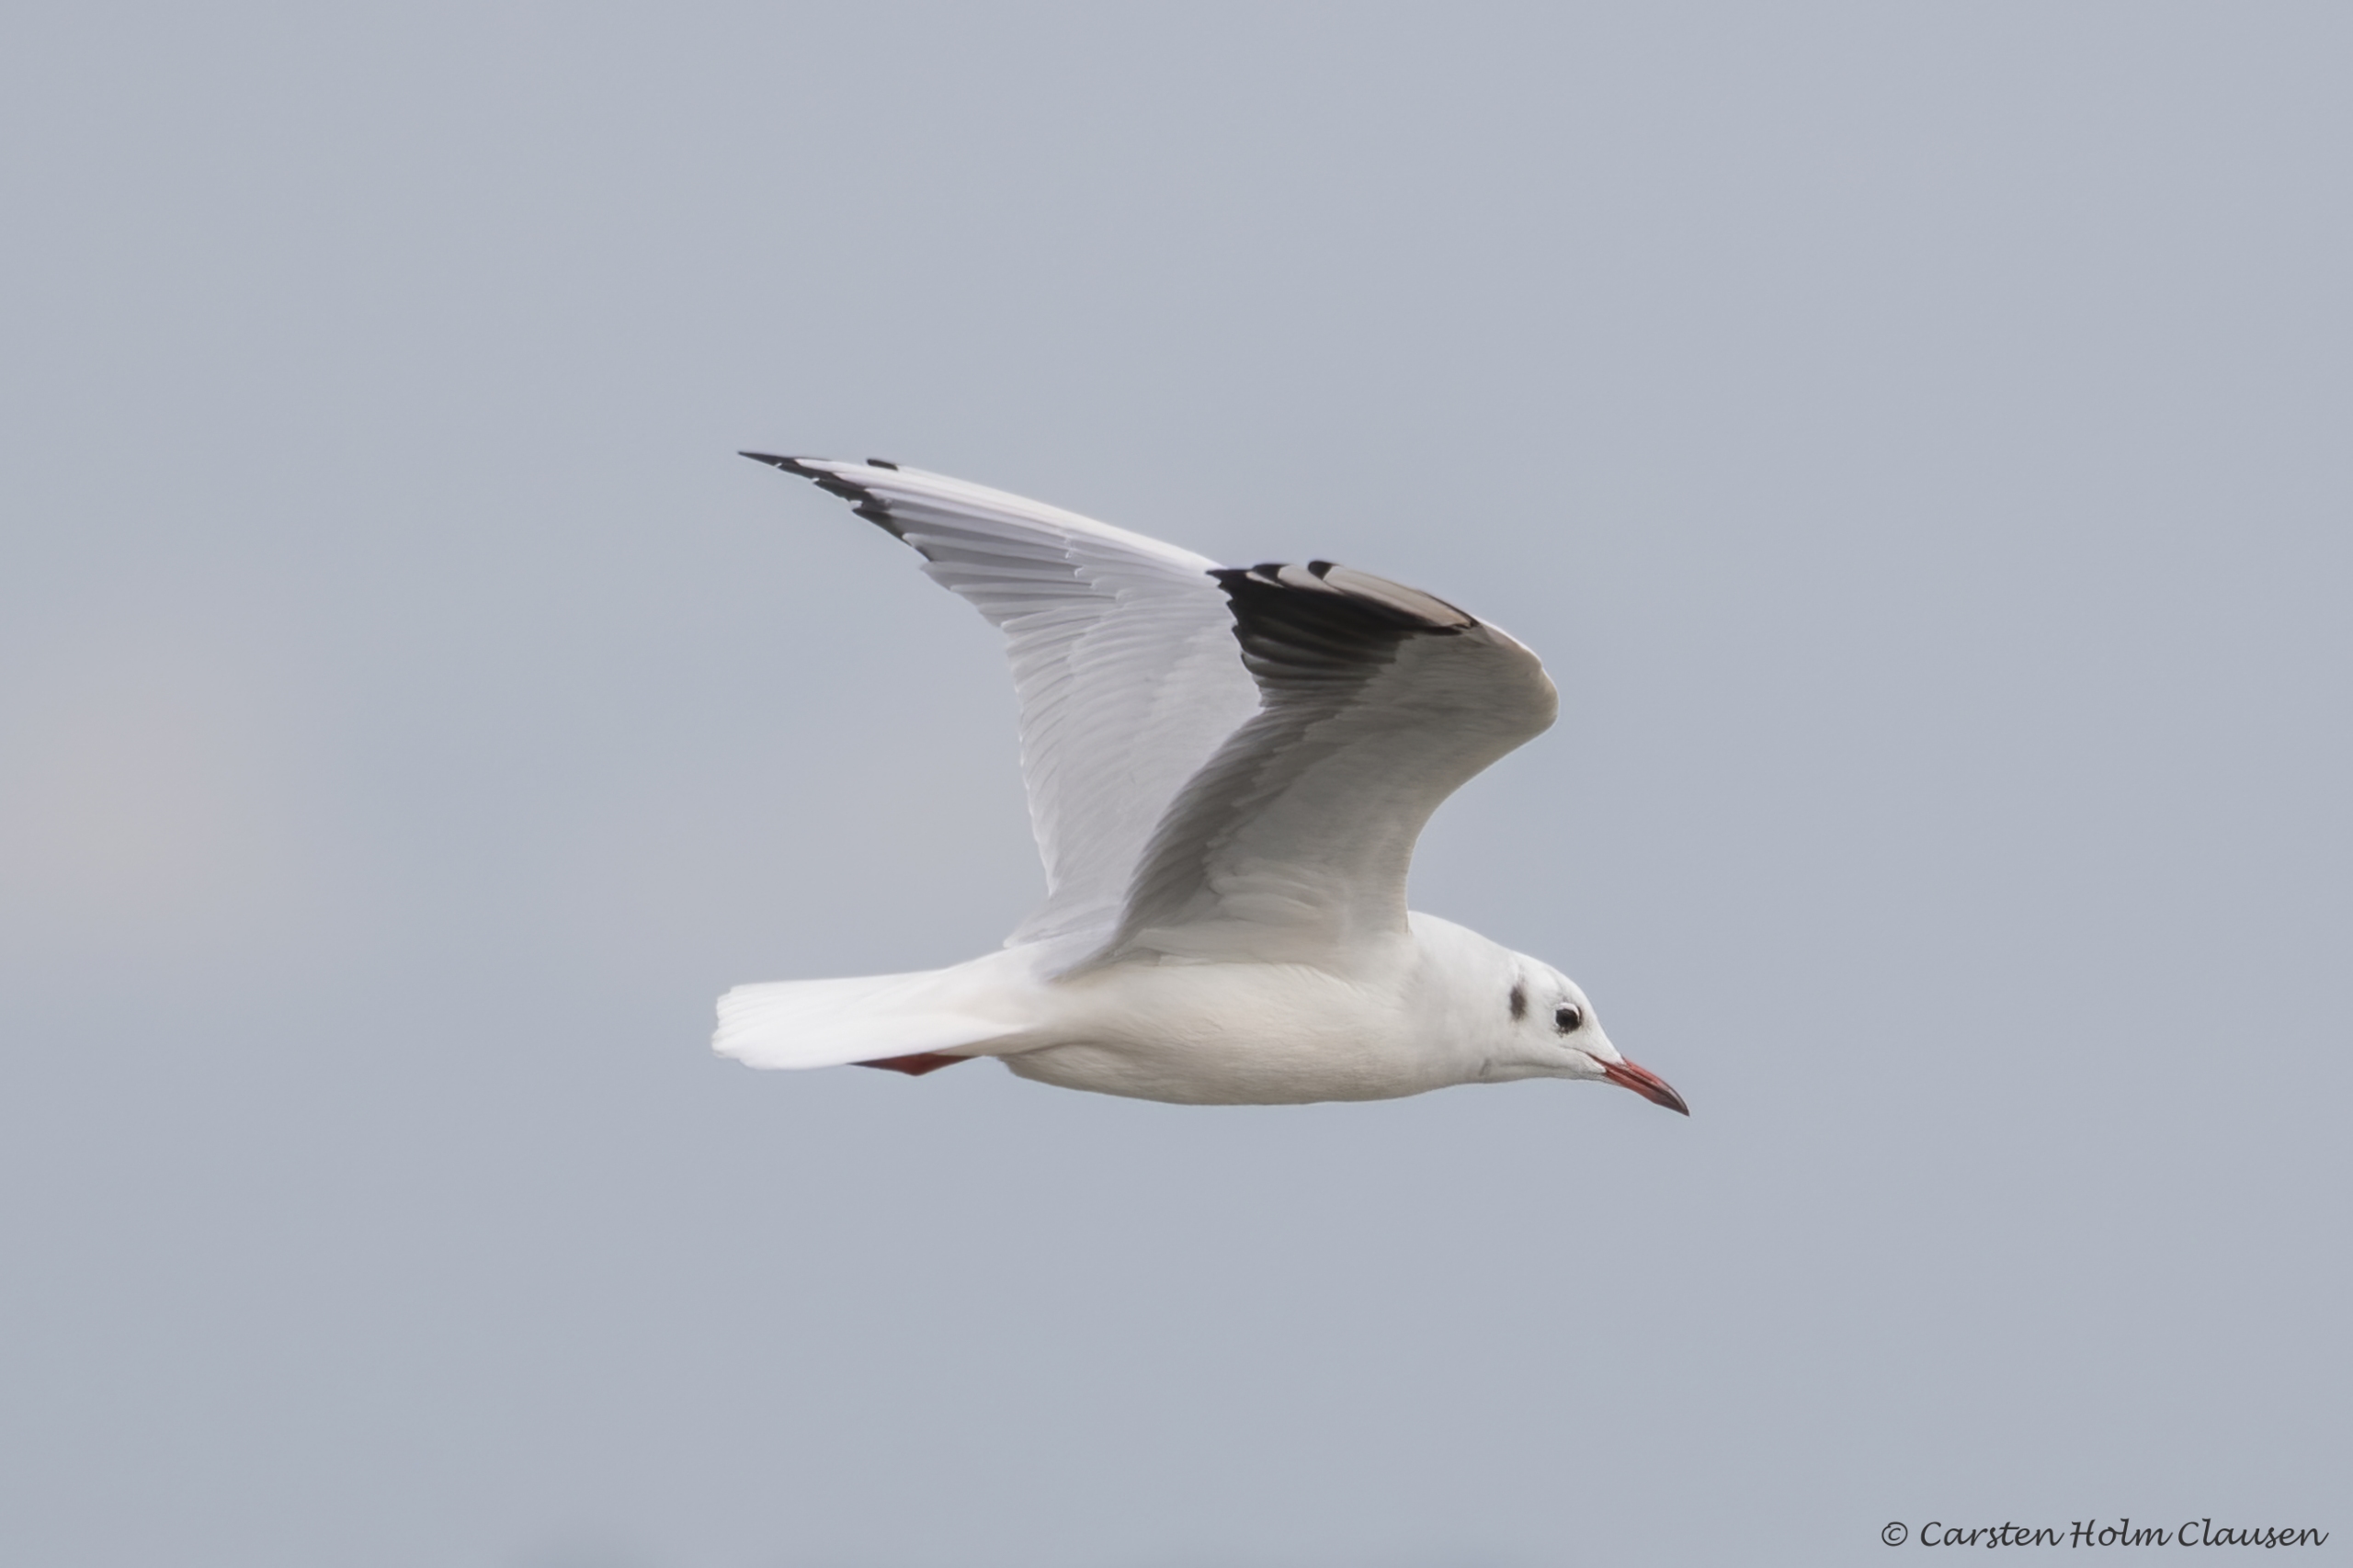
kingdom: Animalia
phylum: Chordata
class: Aves
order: Charadriiformes
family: Laridae
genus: Chroicocephalus
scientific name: Chroicocephalus ridibundus
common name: Hættemåge
